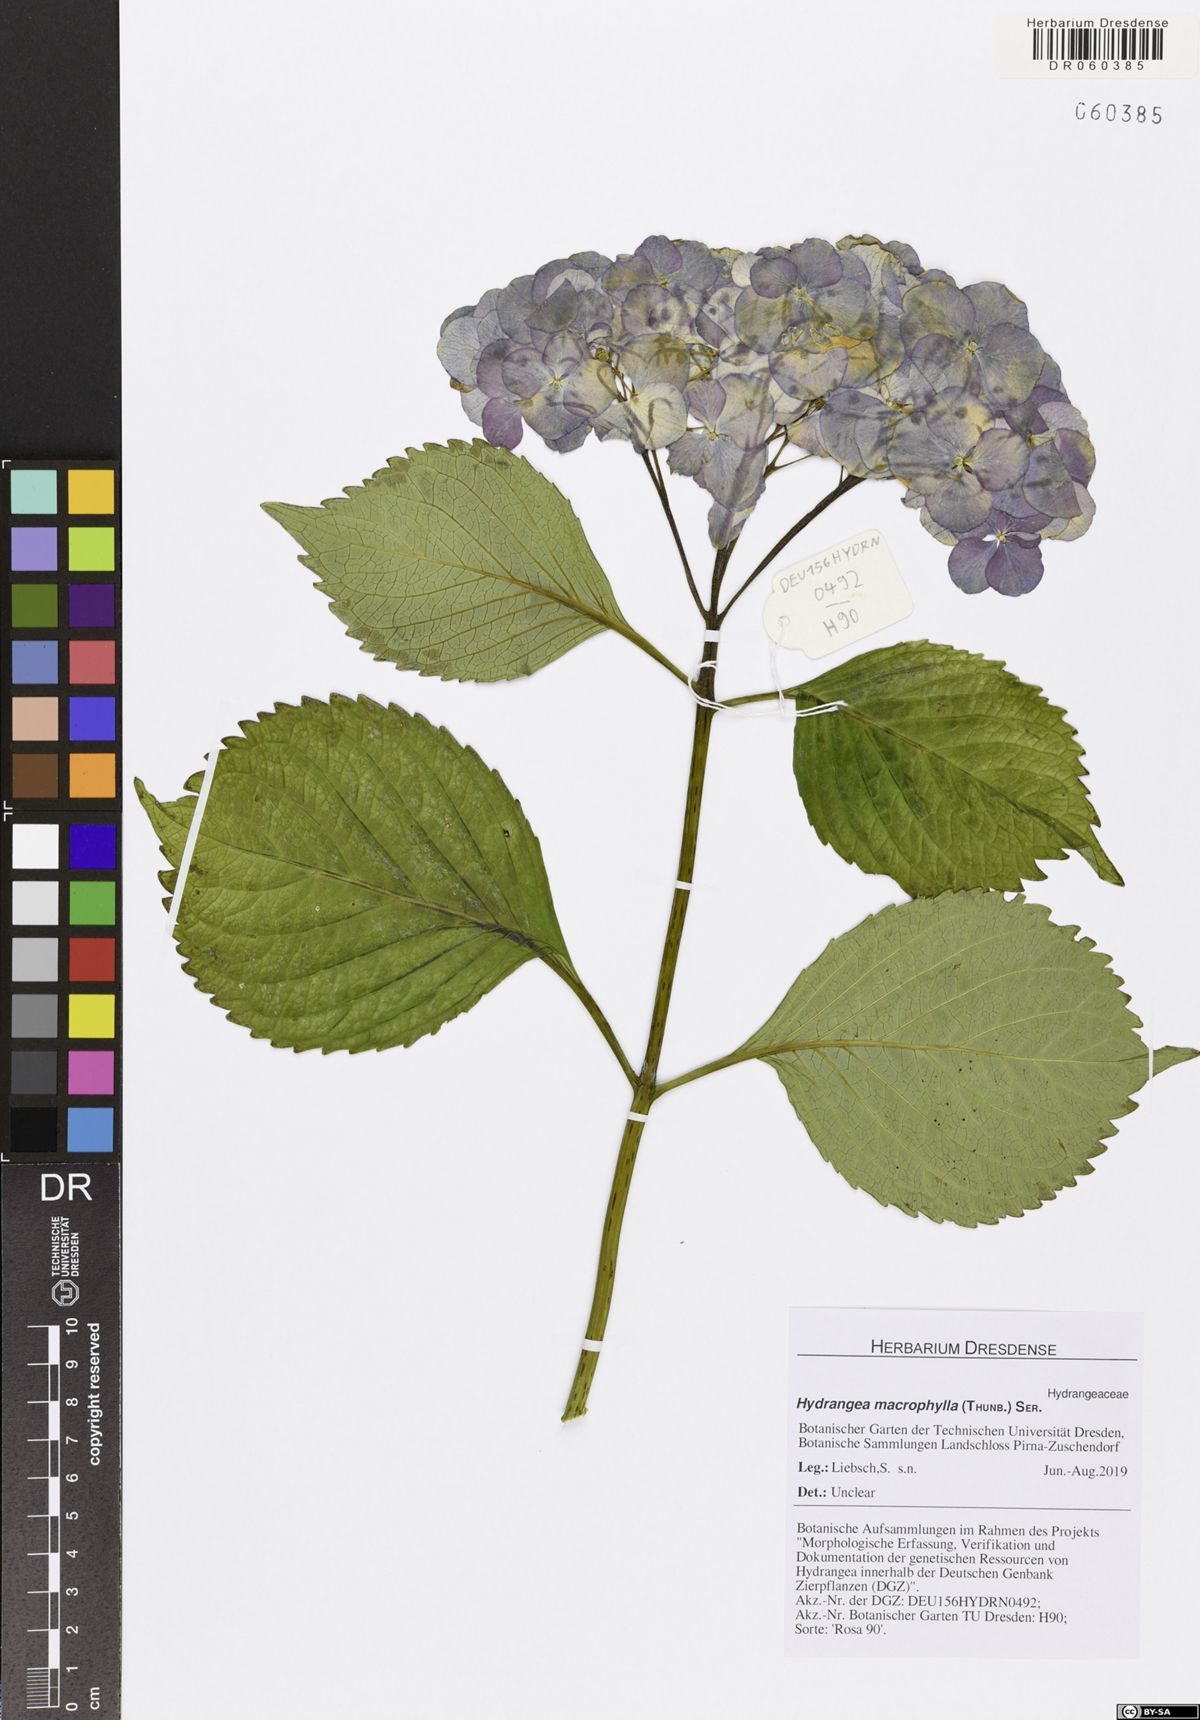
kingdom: Plantae
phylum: Tracheophyta
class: Magnoliopsida
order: Cornales
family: Hydrangeaceae
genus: Hydrangea
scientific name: Hydrangea macrophylla
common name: Hydrangea
